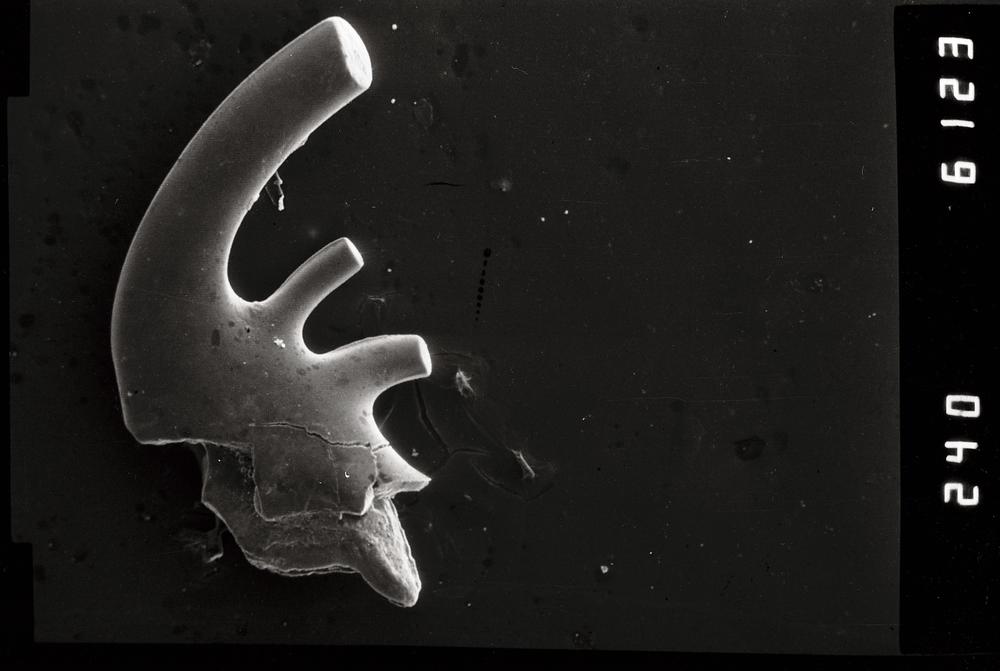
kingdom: Animalia
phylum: Chordata
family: Cordylodontidae
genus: Cordylodus
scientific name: Cordylodus
